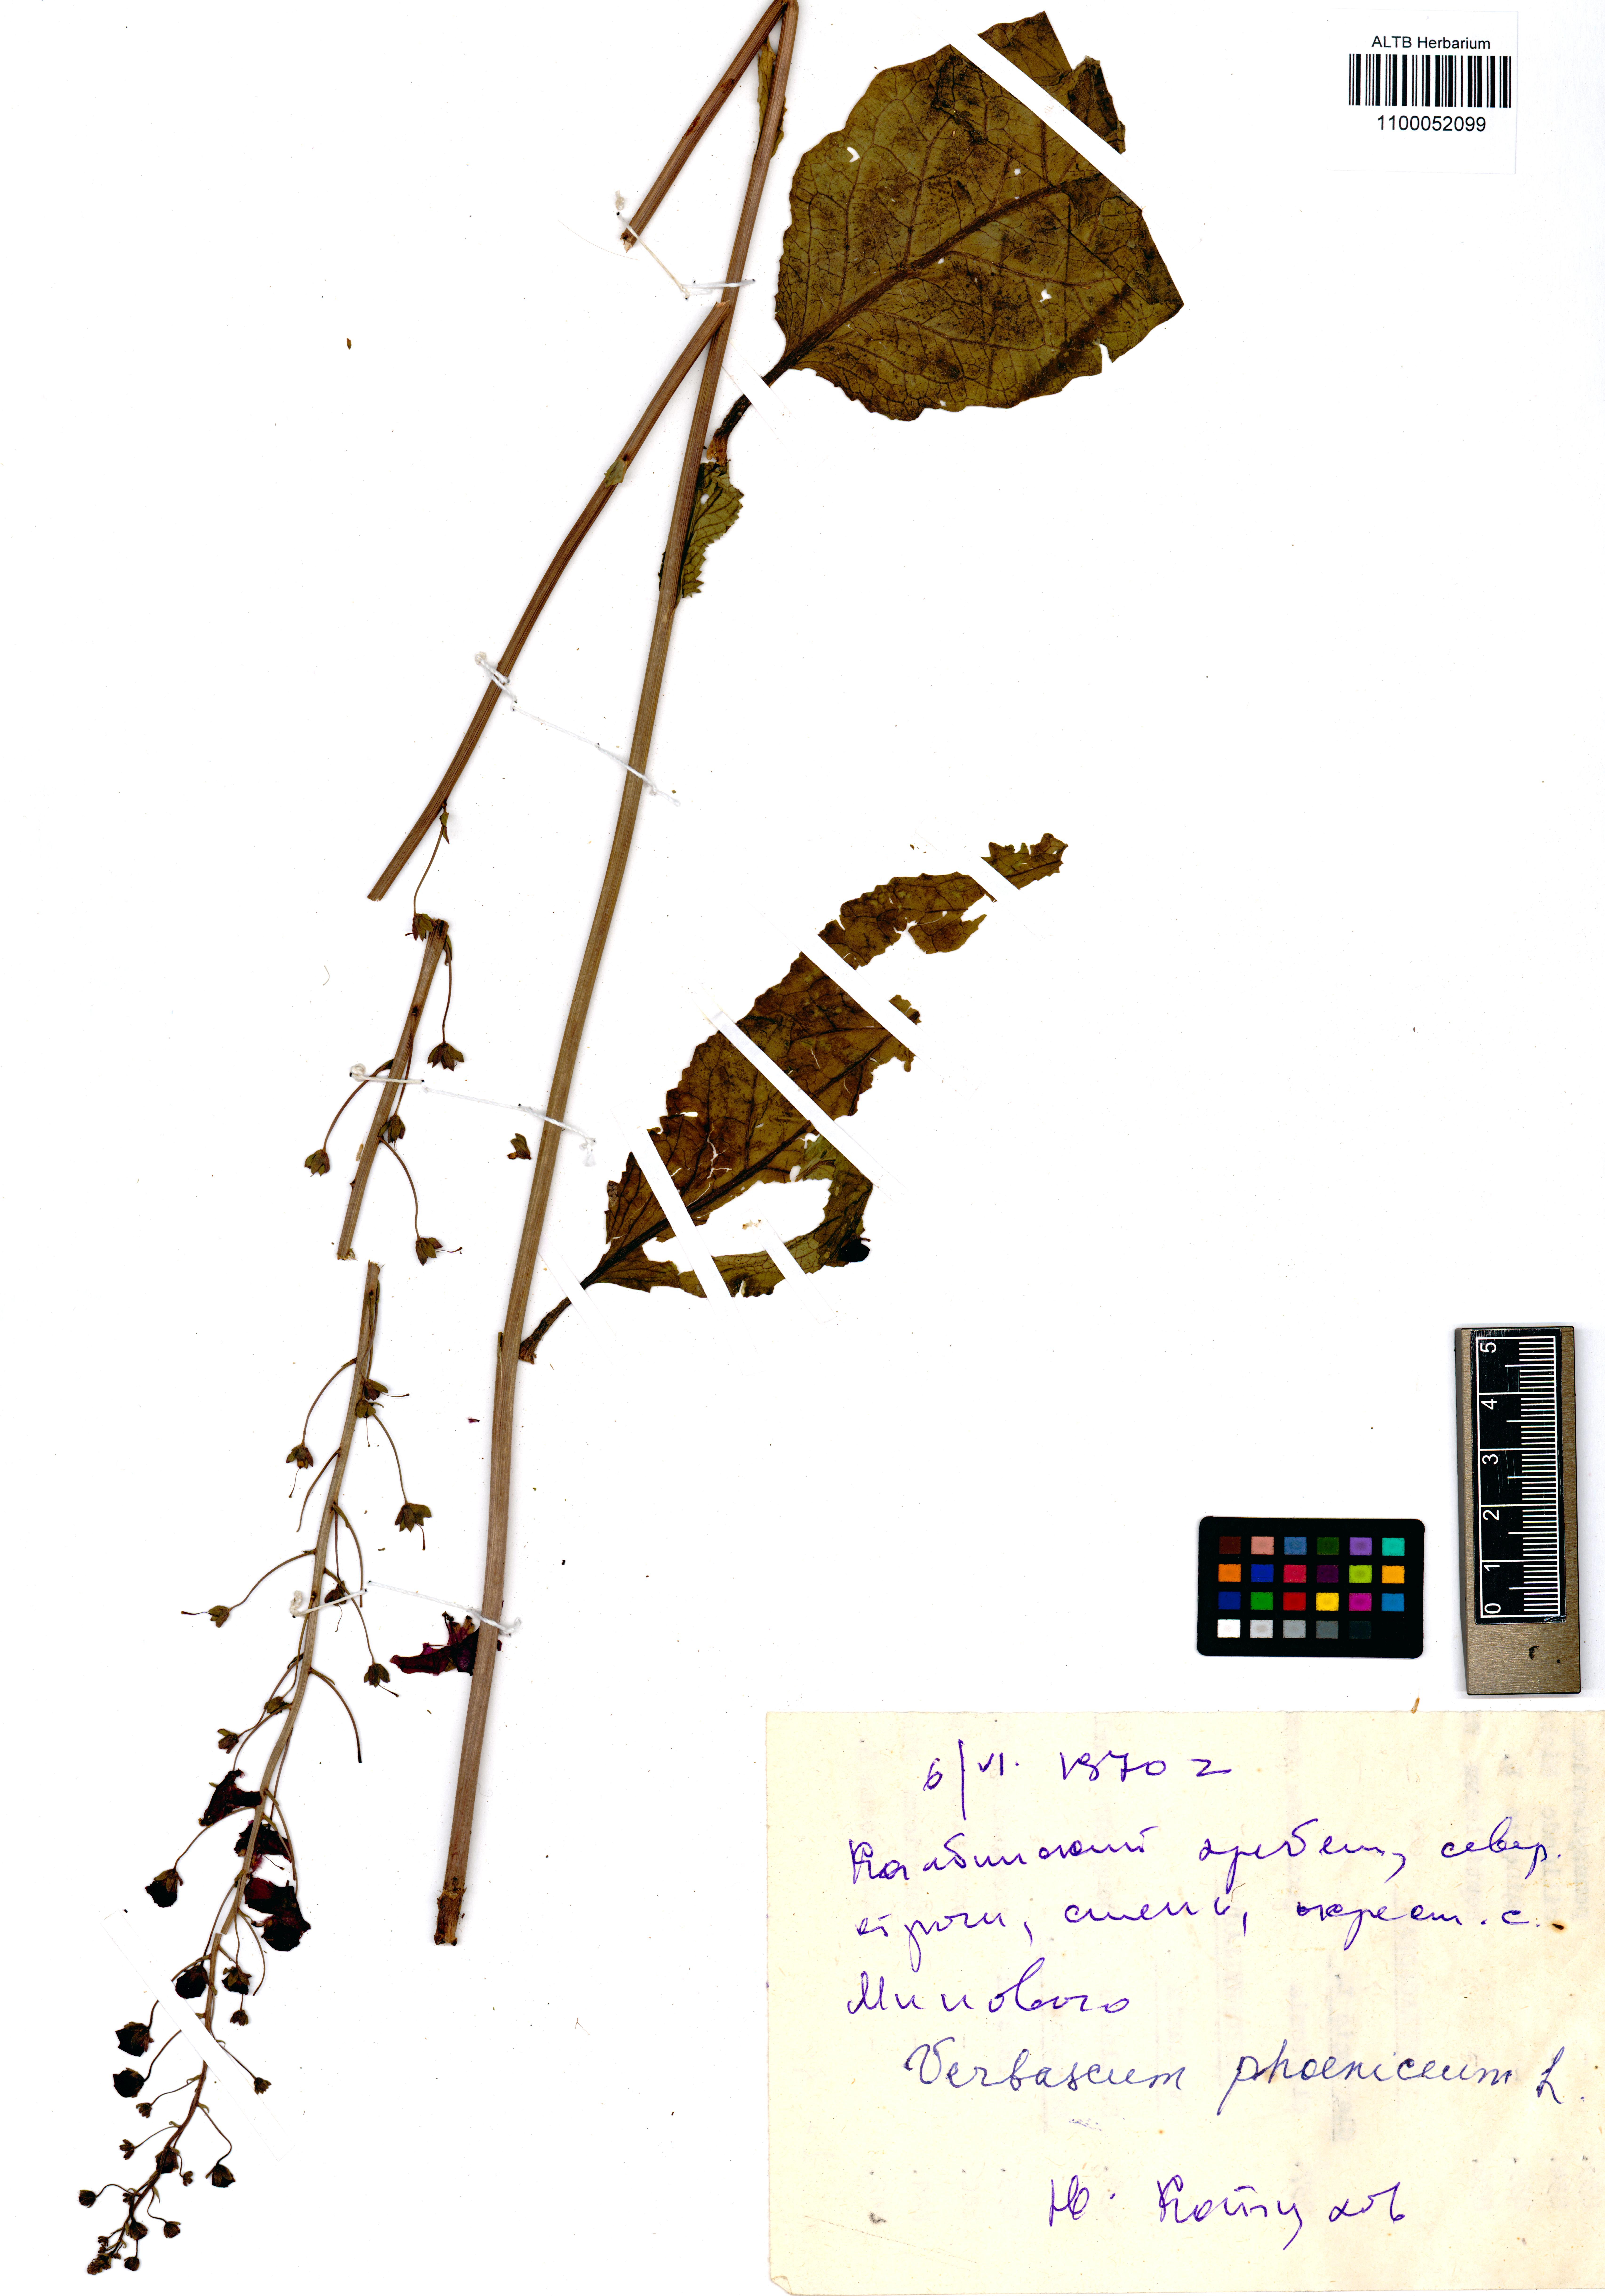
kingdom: Plantae
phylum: Tracheophyta
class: Magnoliopsida
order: Lamiales
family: Scrophulariaceae
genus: Verbascum
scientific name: Verbascum phoeniceum
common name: Purple mullein
